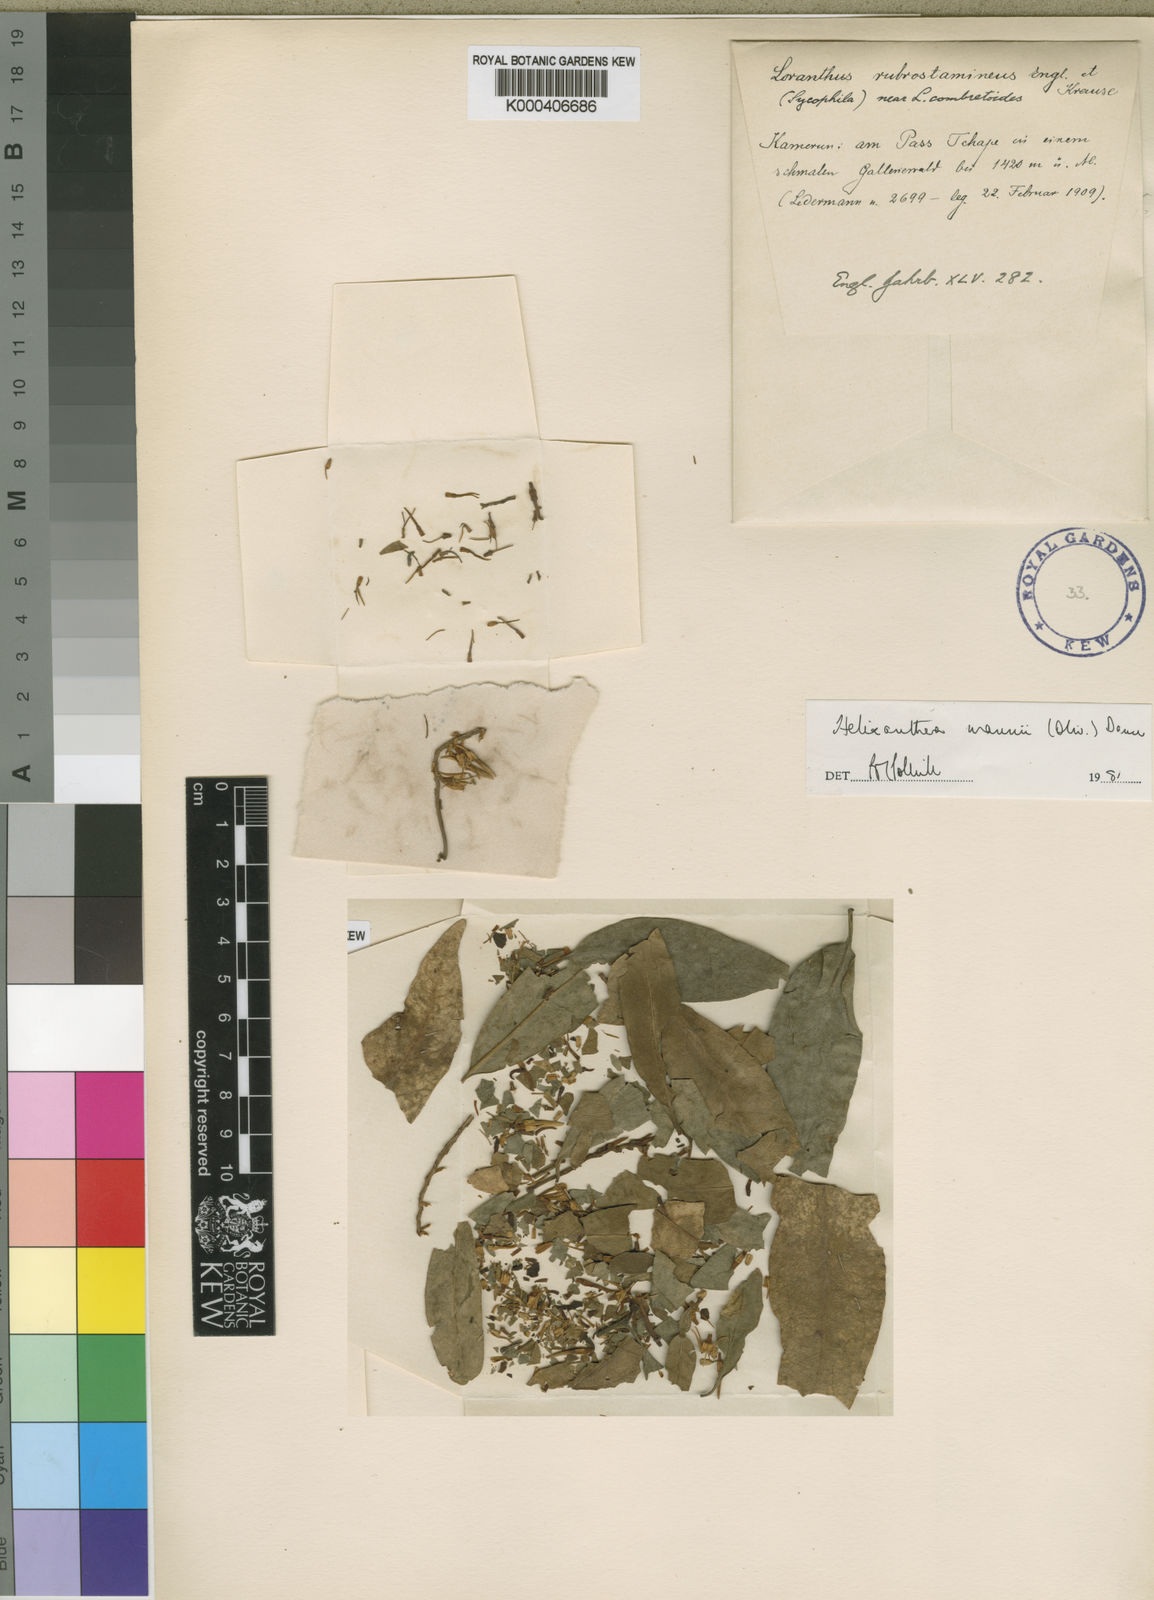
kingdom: Plantae
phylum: Tracheophyta
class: Magnoliopsida
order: Santalales
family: Loranthaceae
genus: Helixanthera
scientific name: Helixanthera mannii
